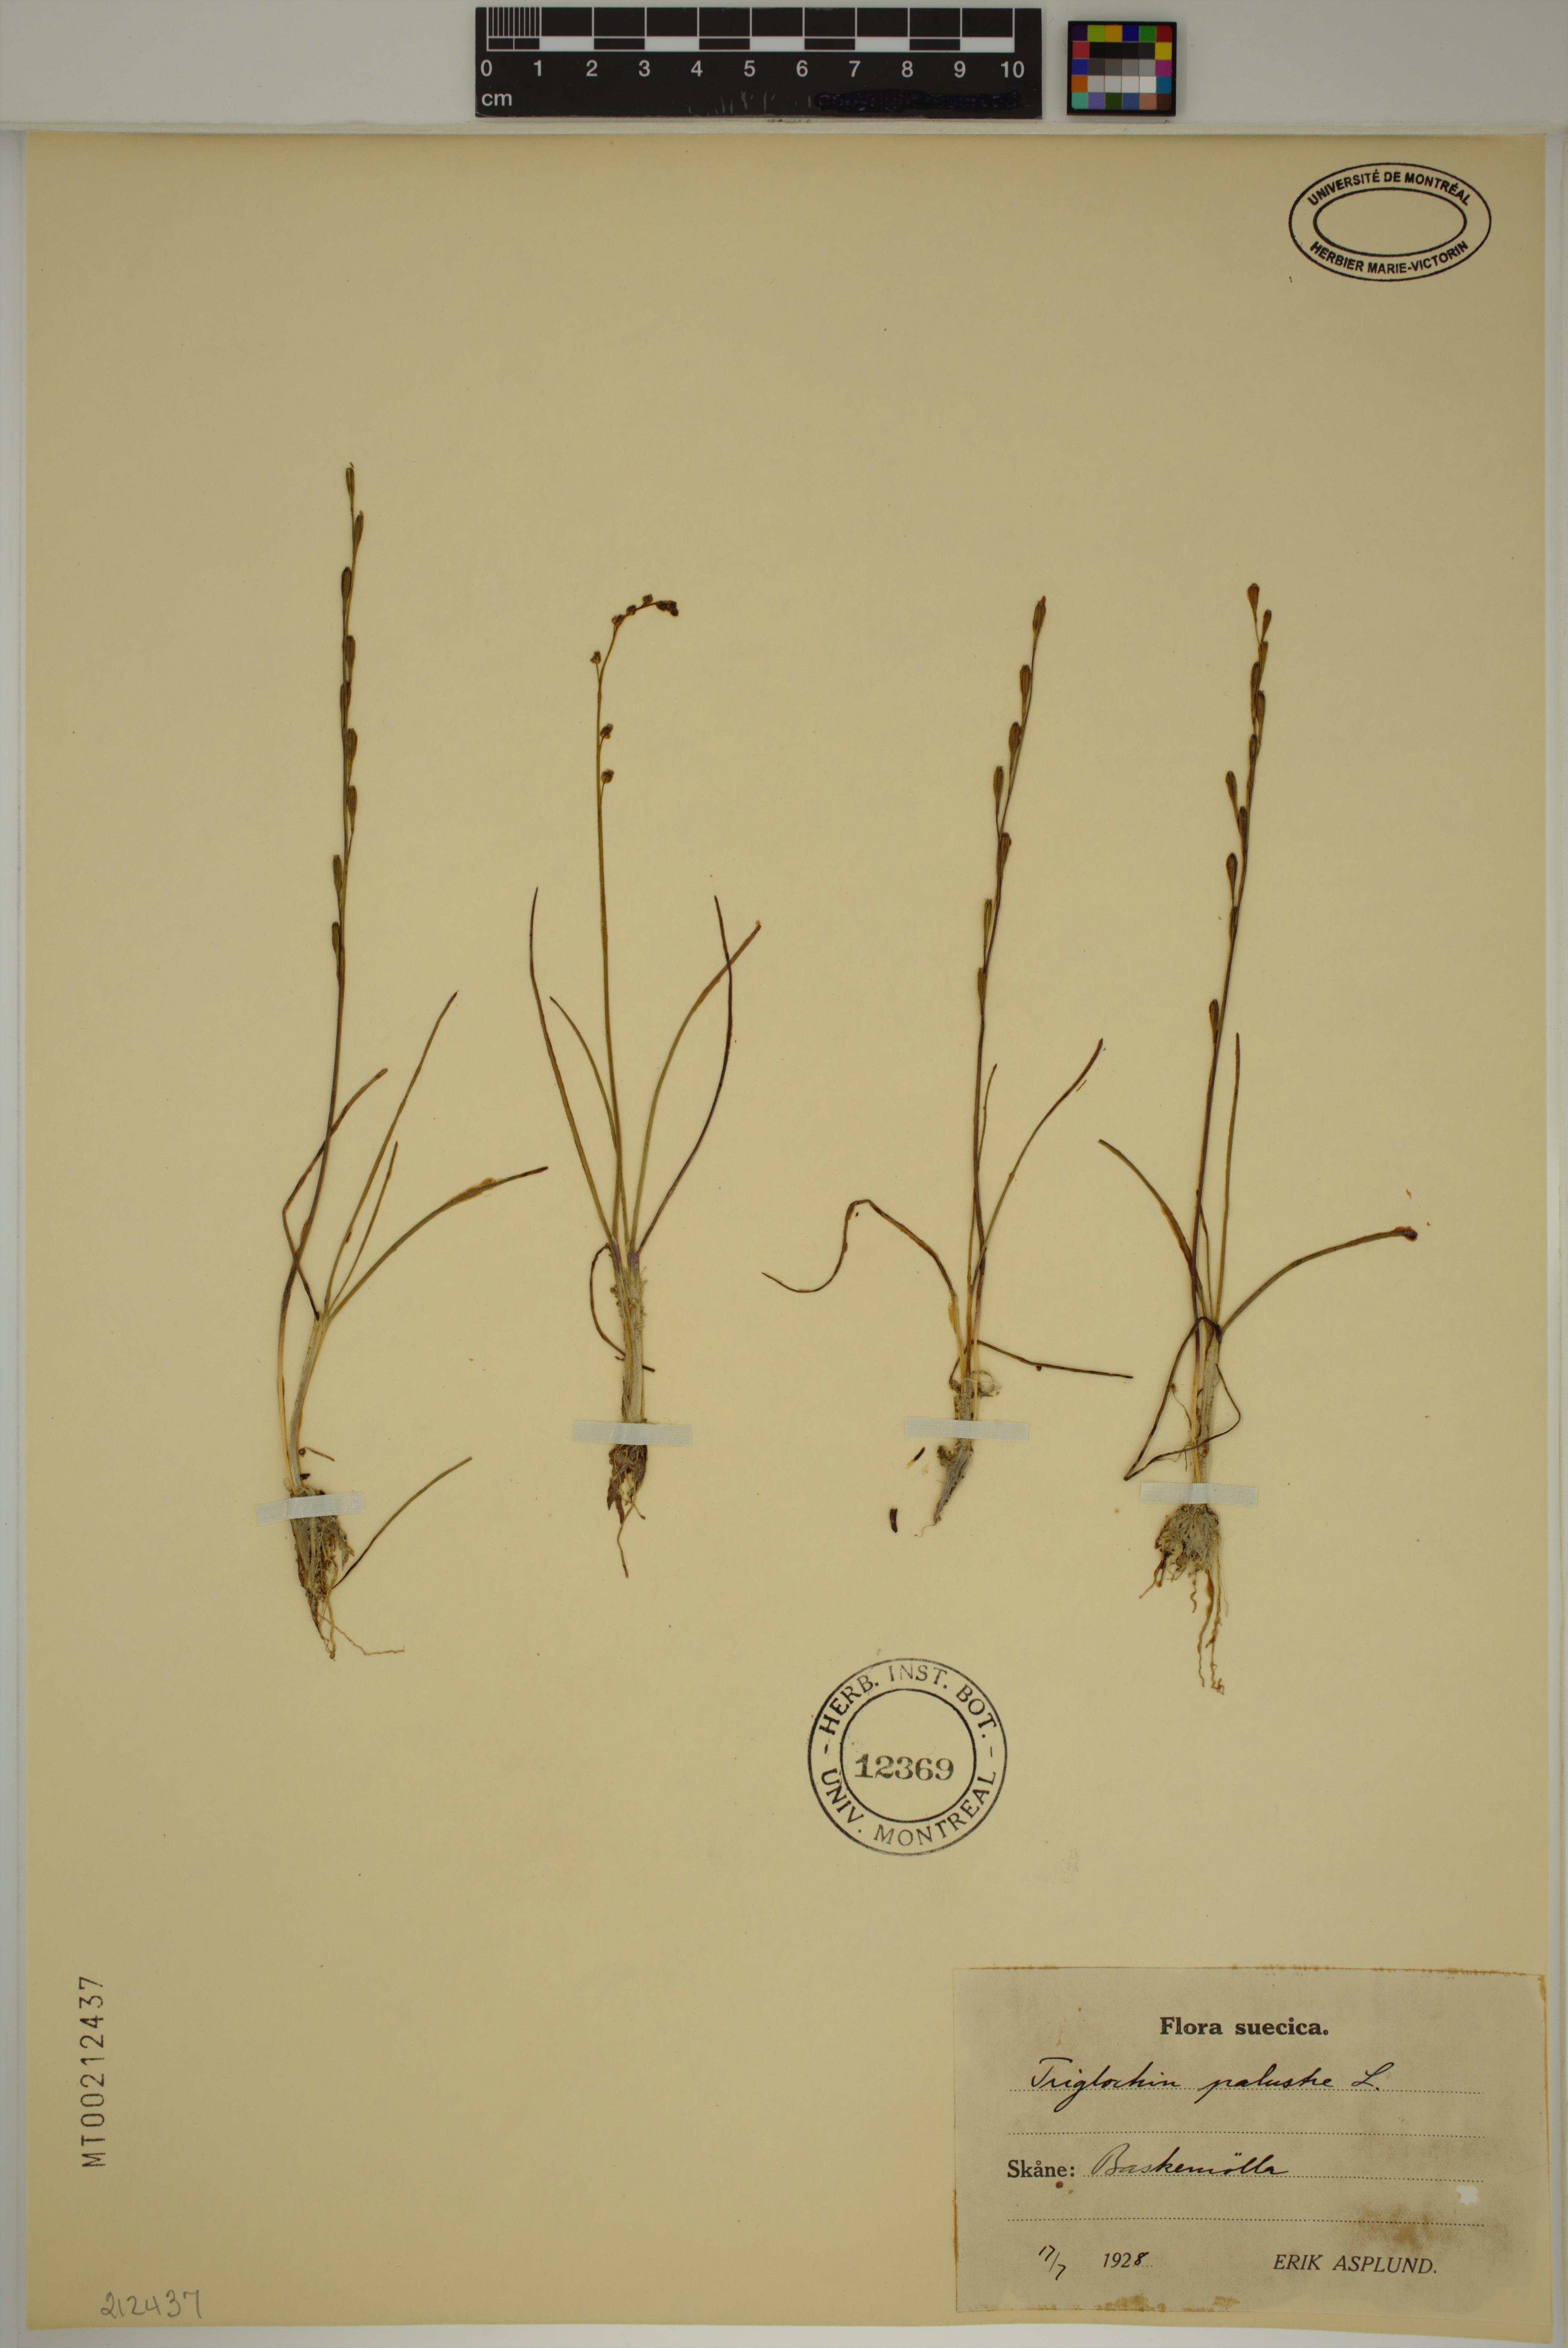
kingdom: Plantae
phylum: Tracheophyta
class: Liliopsida
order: Alismatales
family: Juncaginaceae
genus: Triglochin
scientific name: Triglochin palustris
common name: Marsh arrowgrass
